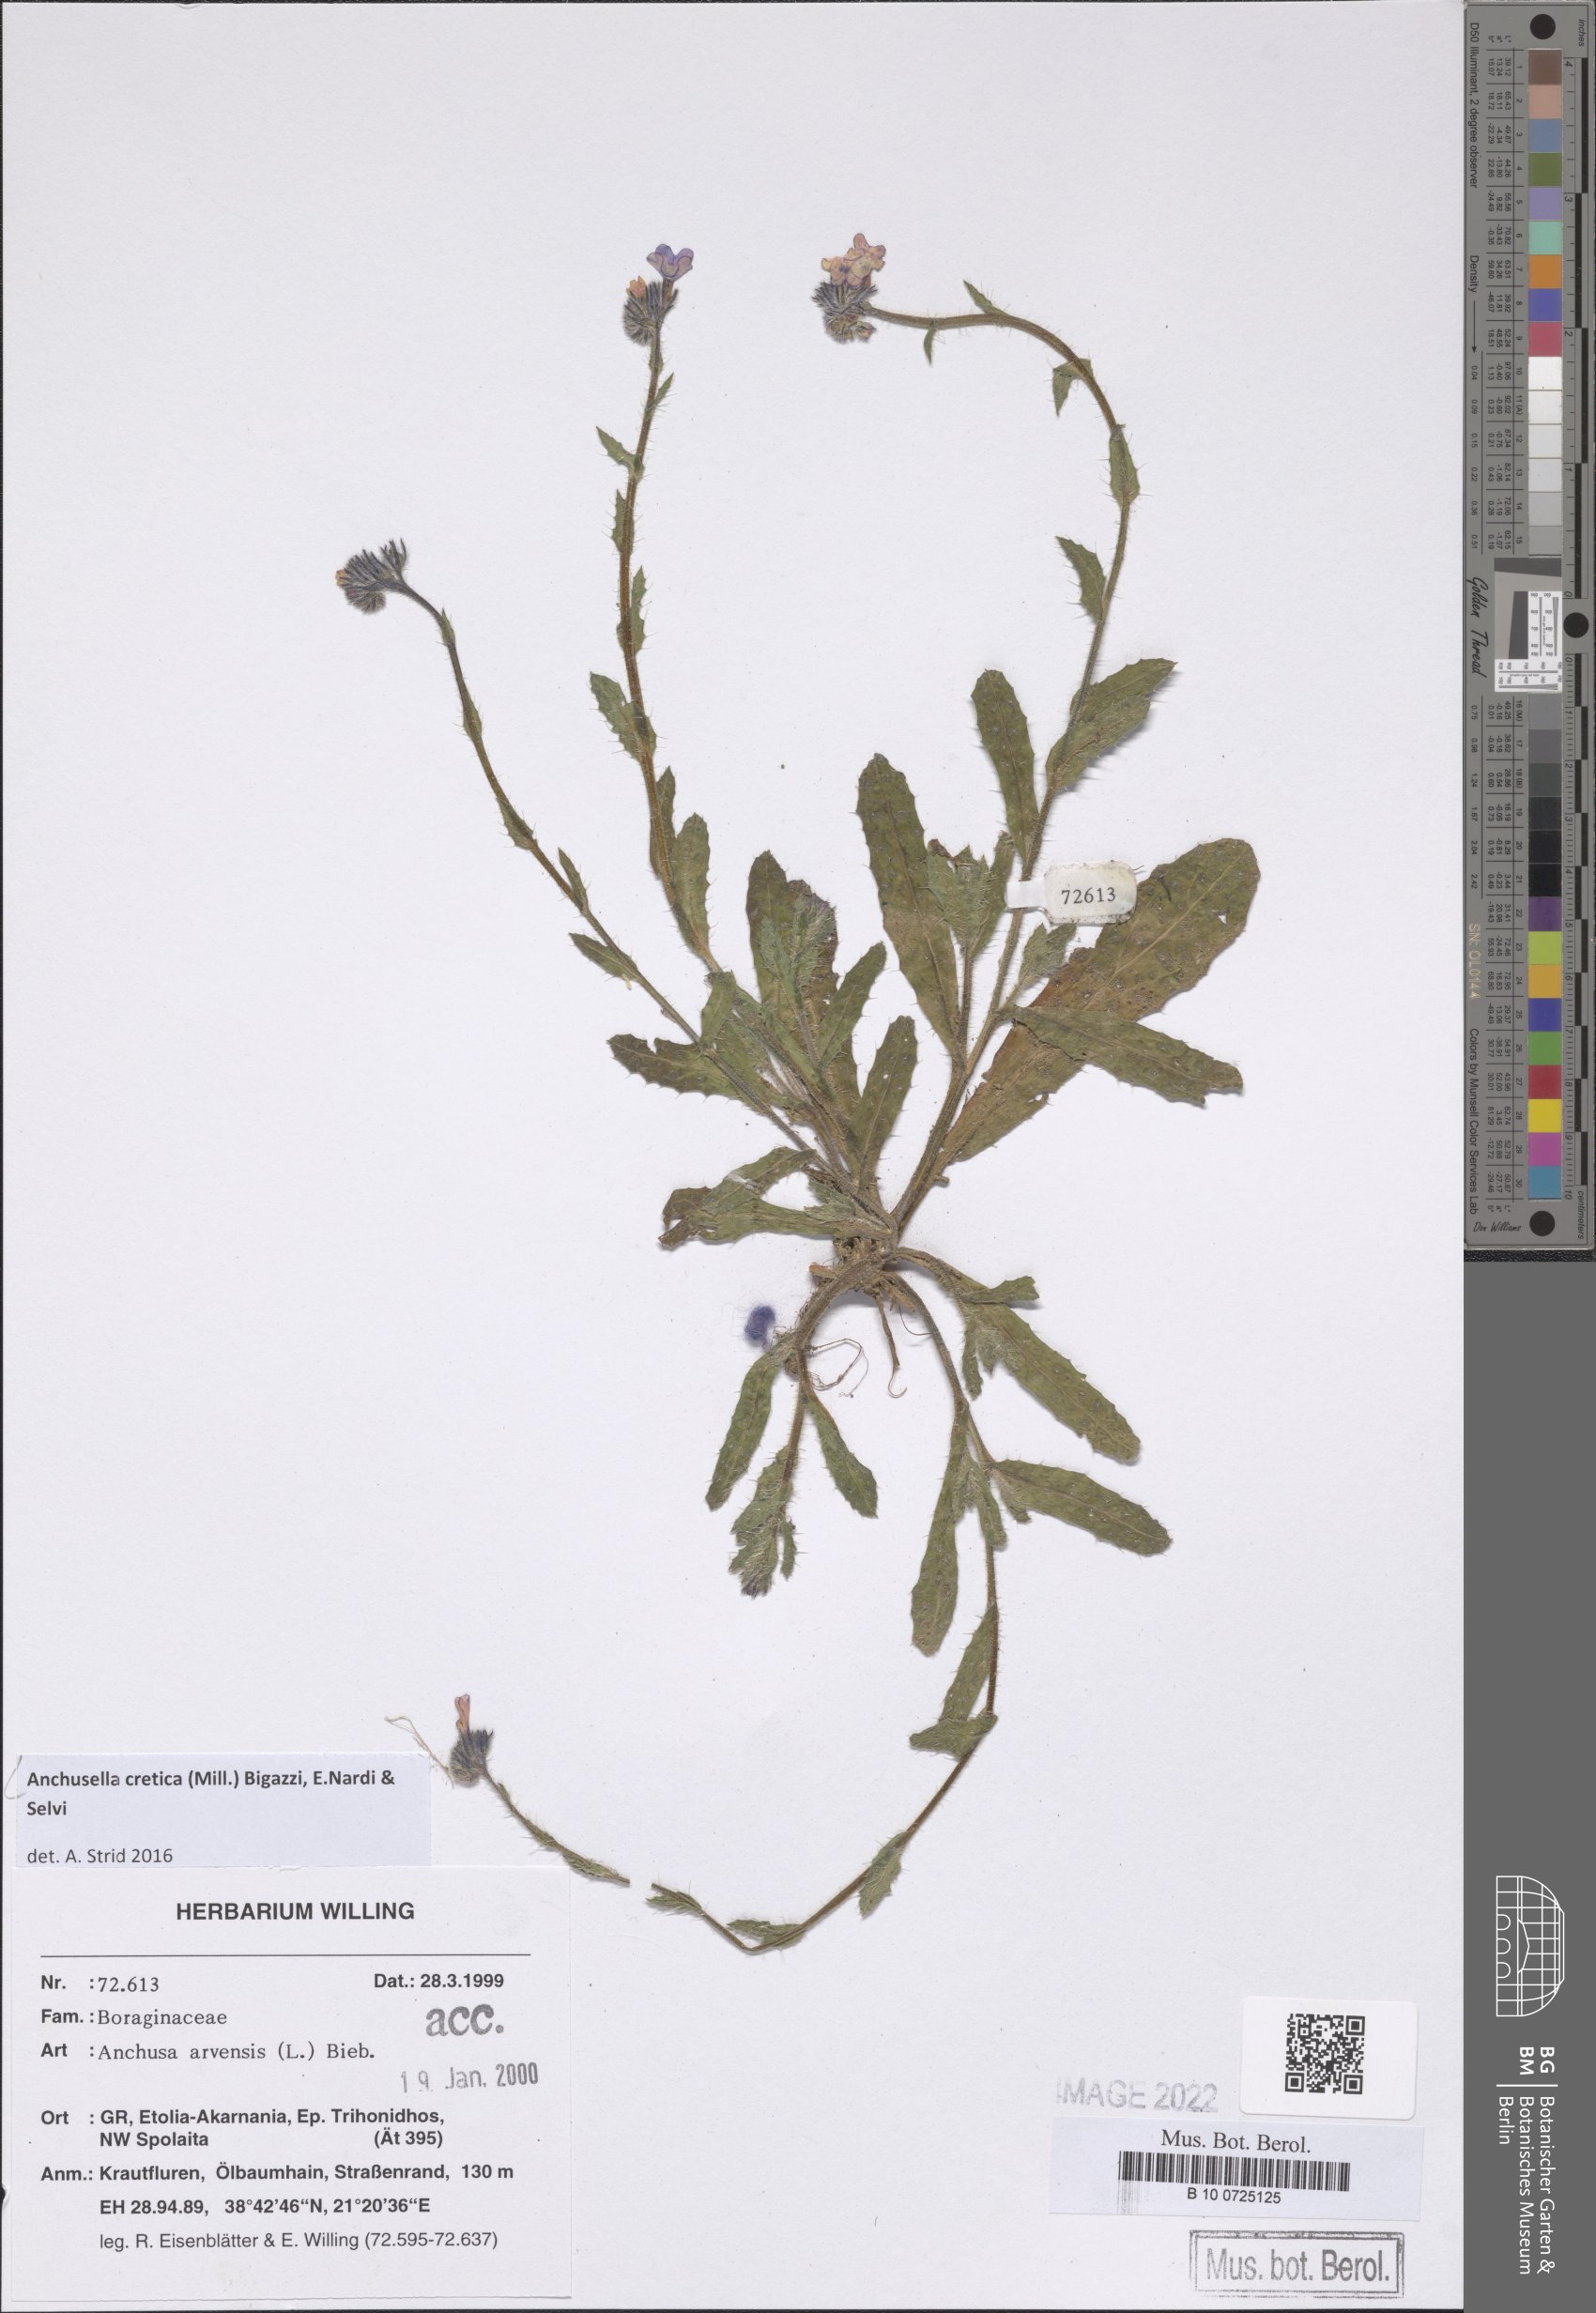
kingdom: Plantae
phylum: Tracheophyta
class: Magnoliopsida
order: Boraginales
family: Boraginaceae
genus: Anchusella
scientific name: Anchusella cretica
